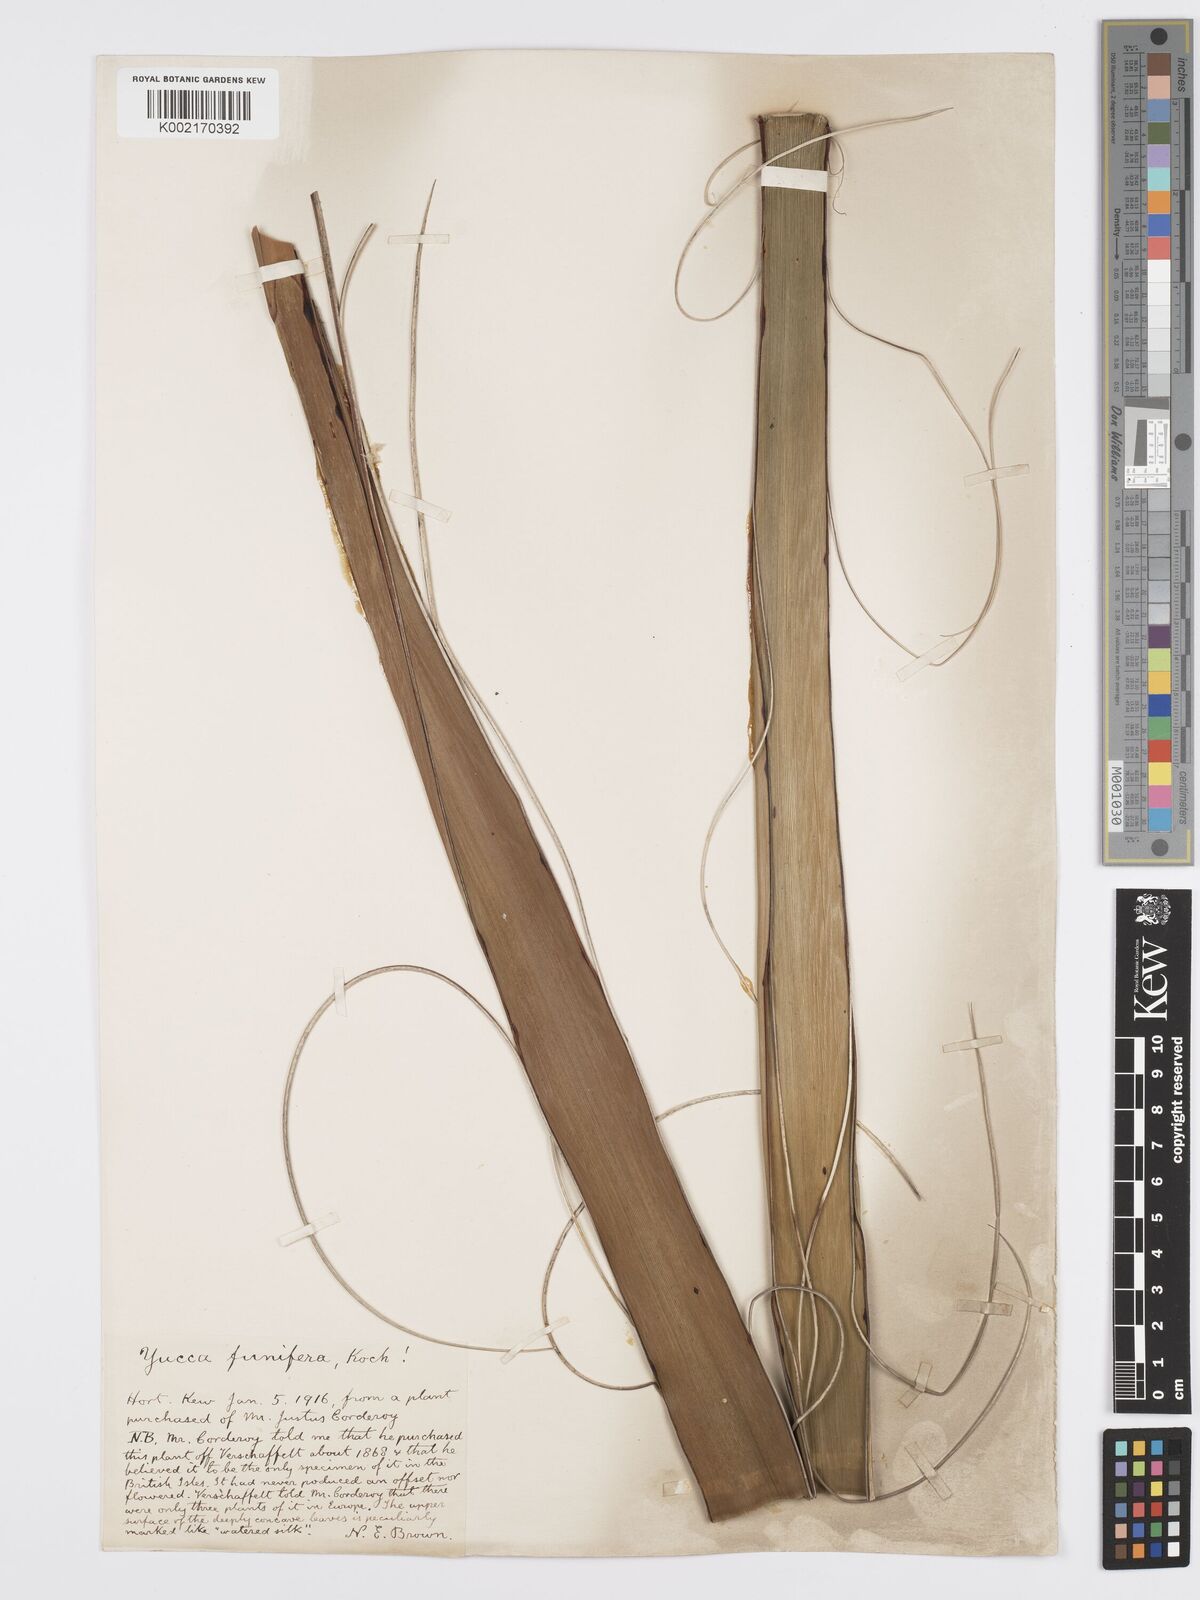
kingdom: Plantae
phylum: Tracheophyta
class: Liliopsida
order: Asparagales
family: Asparagaceae
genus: Hesperaloe
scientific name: Hesperaloe funifera
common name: Giant hesperaloe
